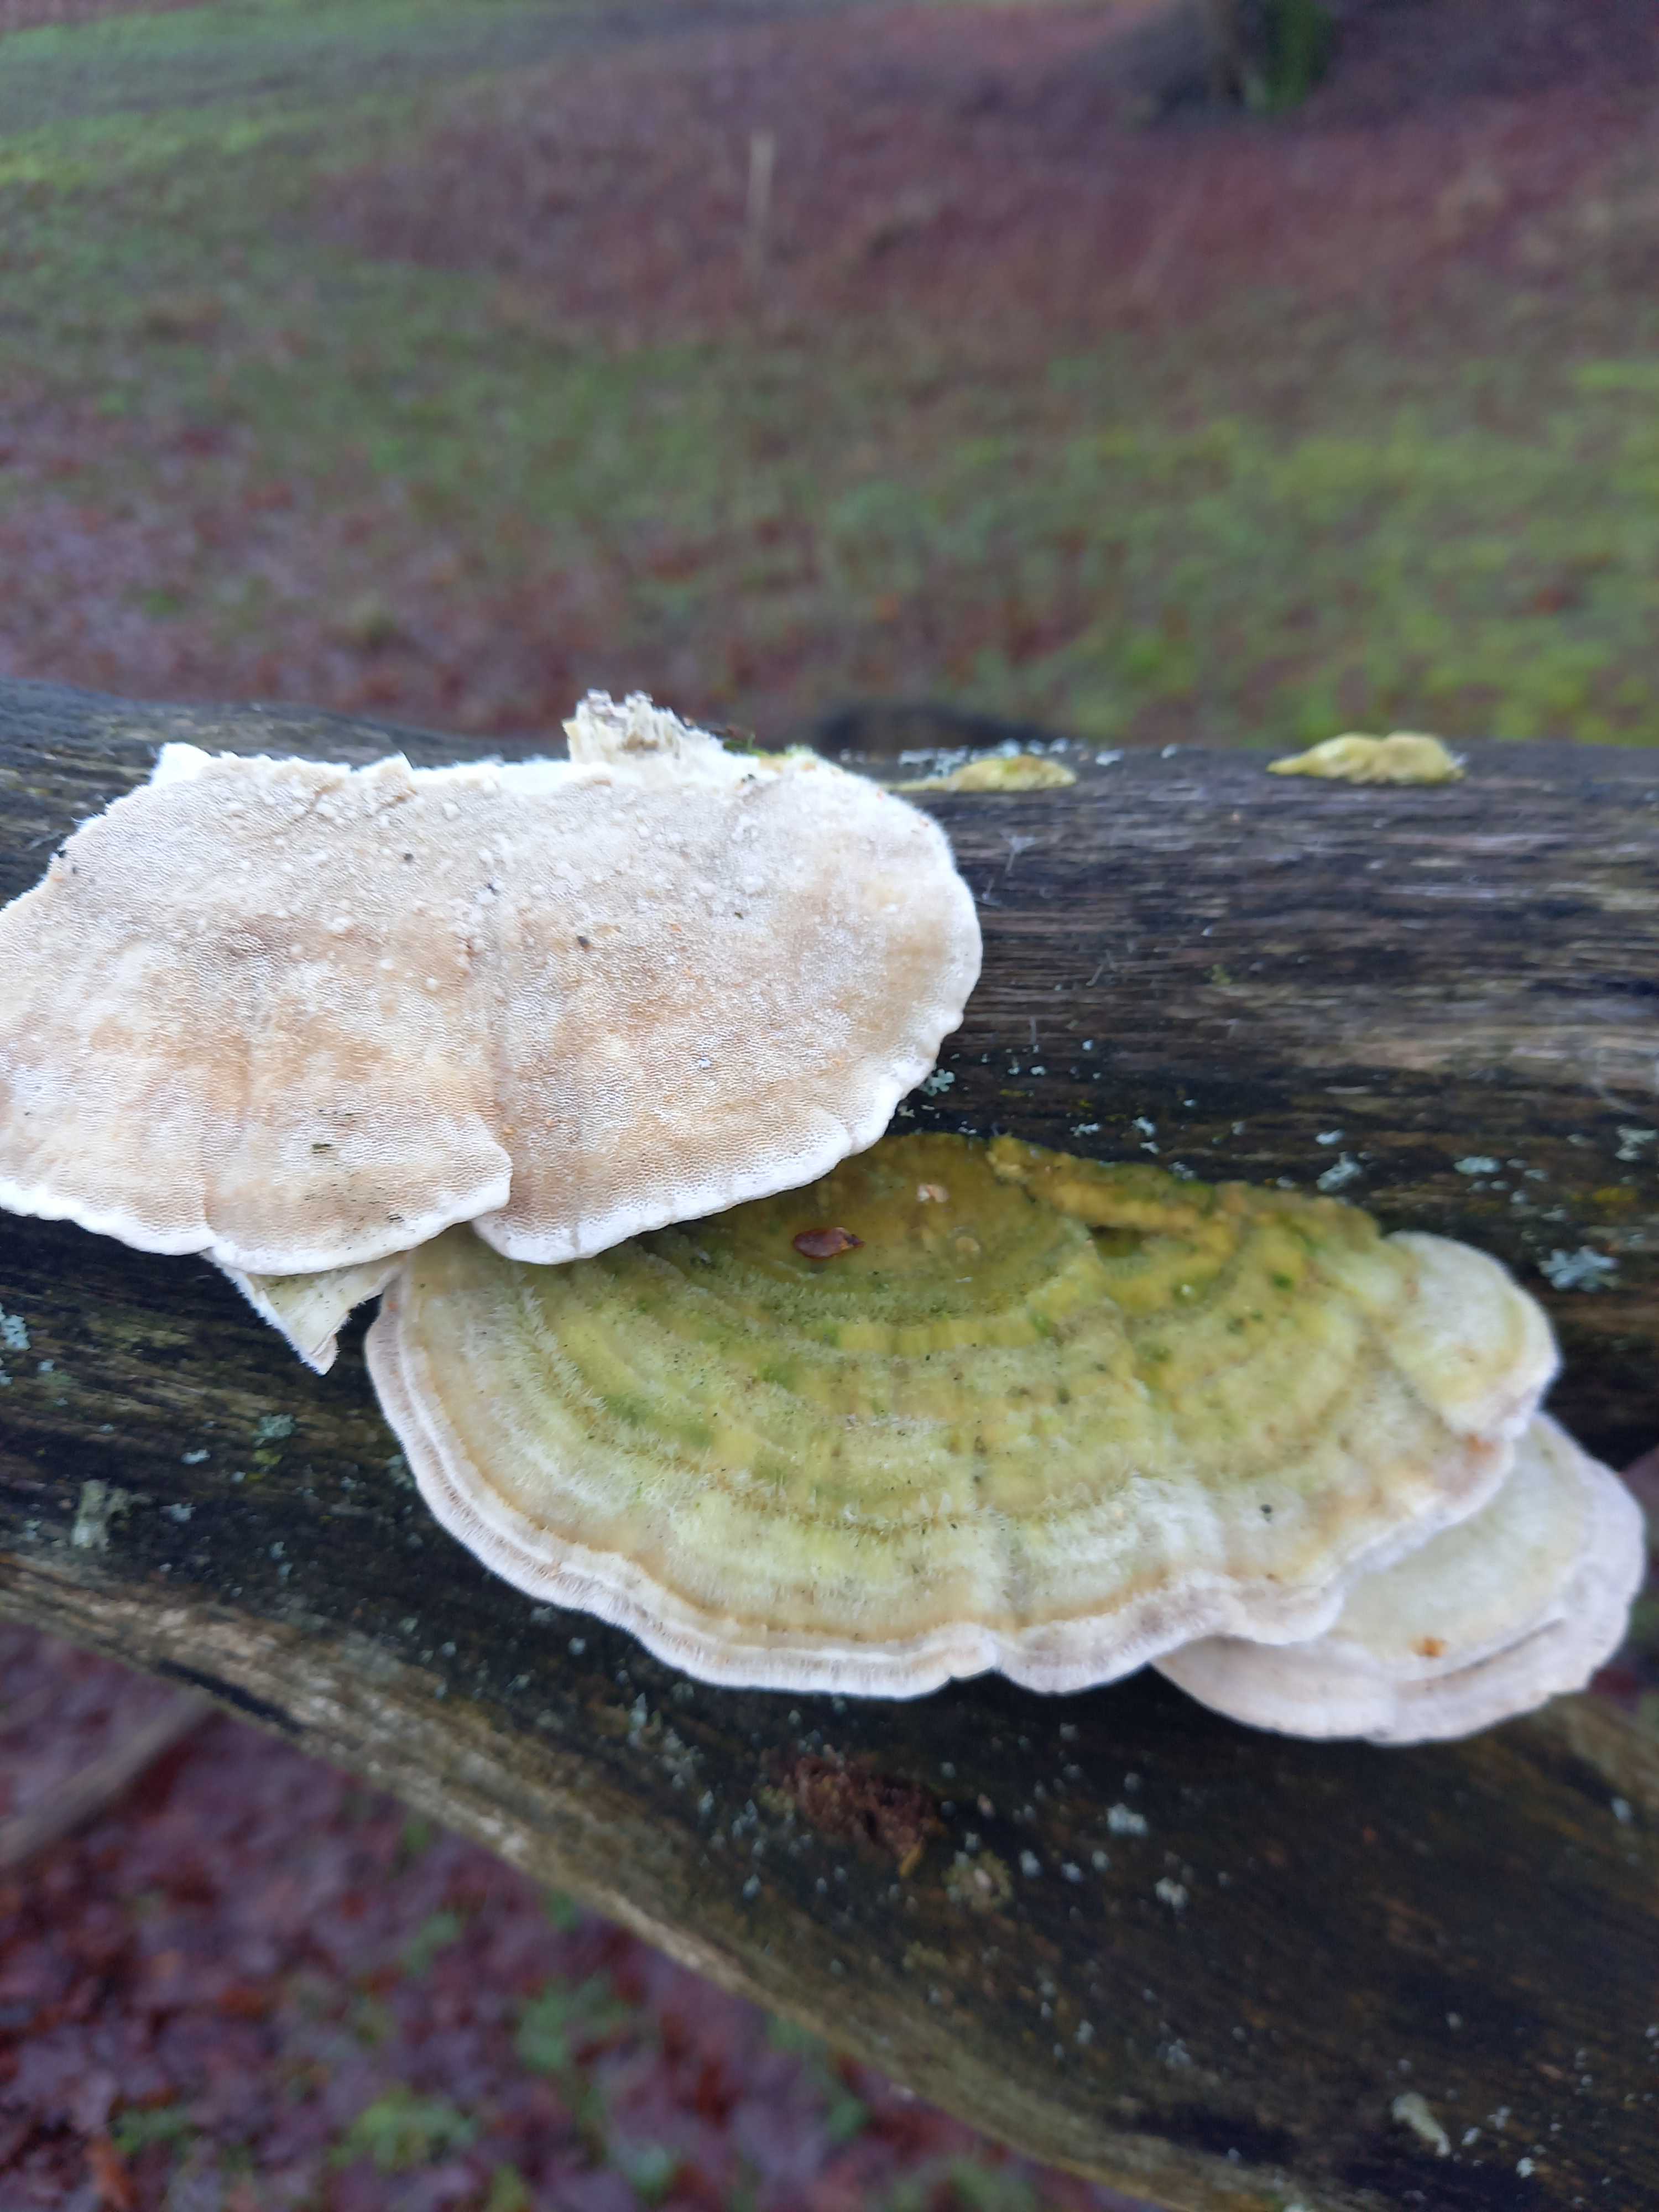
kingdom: Fungi
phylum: Basidiomycota
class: Agaricomycetes
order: Polyporales
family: Polyporaceae
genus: Trametes
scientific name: Trametes hirsuta
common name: håret læderporesvamp
